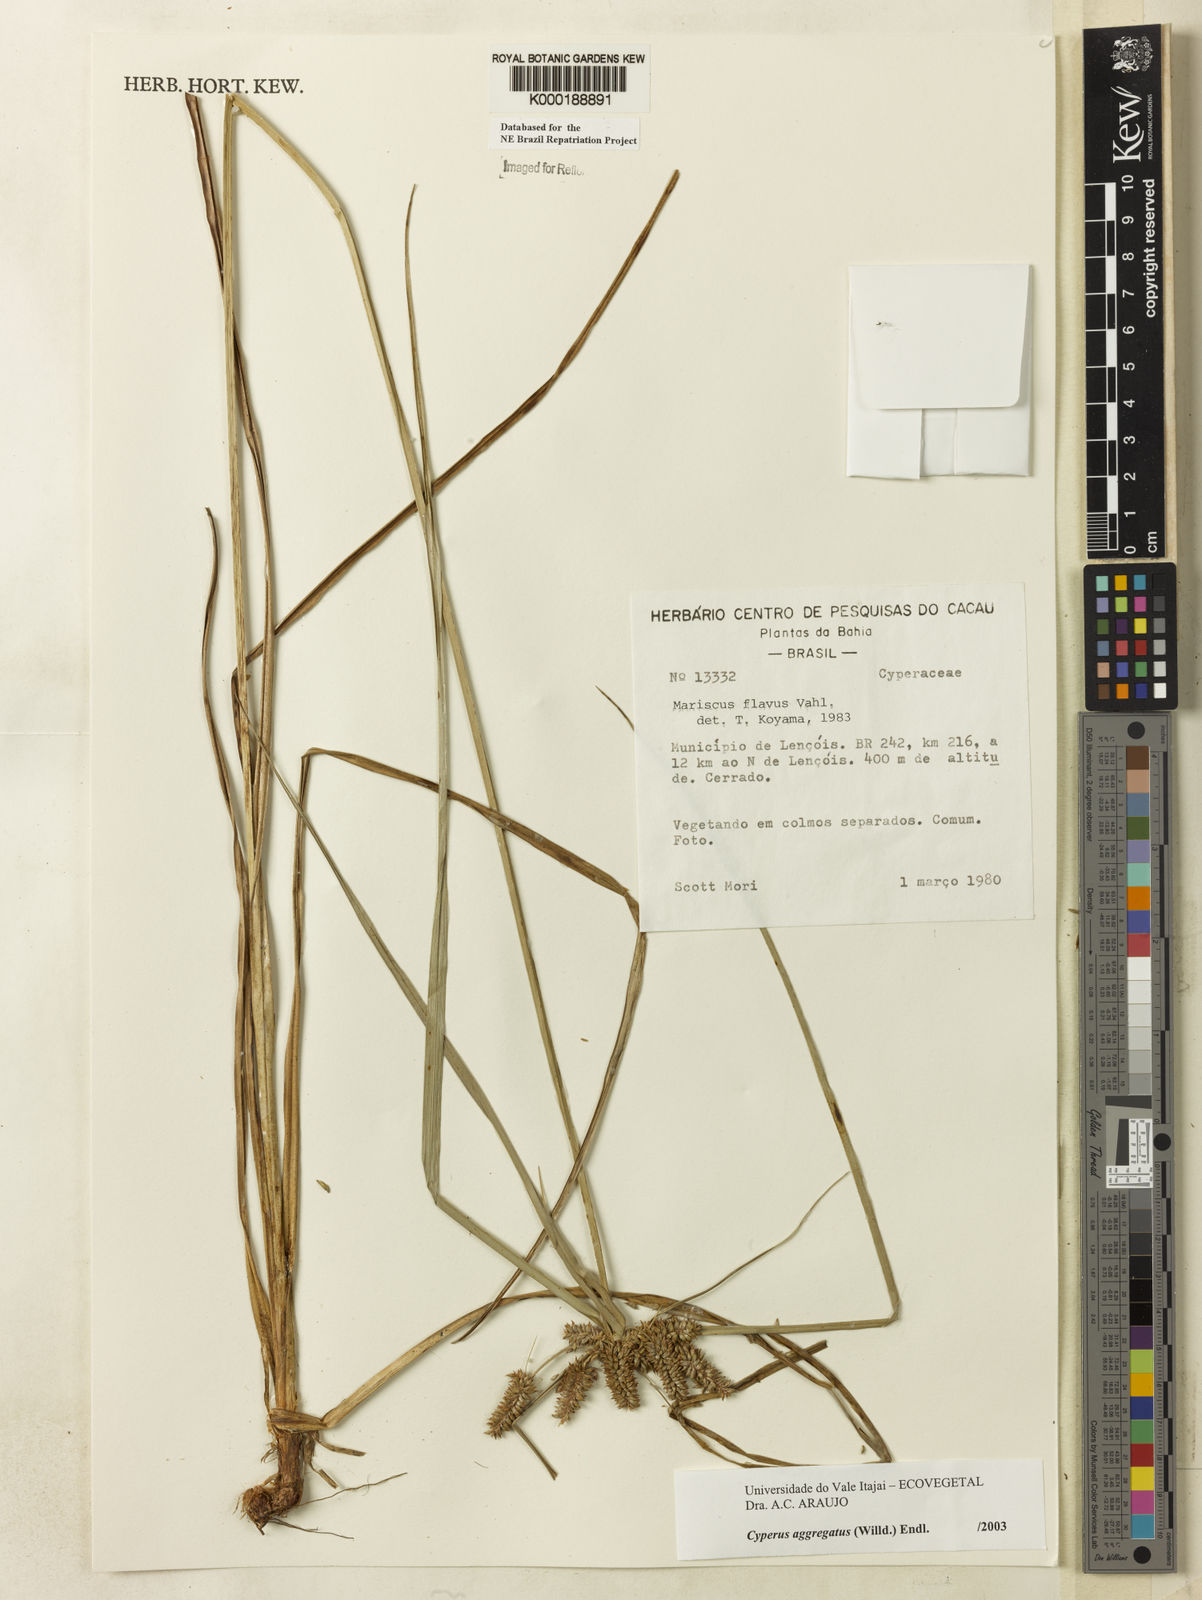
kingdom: Plantae
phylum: Tracheophyta
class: Liliopsida
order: Poales
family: Cyperaceae
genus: Cyperus
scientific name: Cyperus aggregatus
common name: Inflatedscale flatsedge
